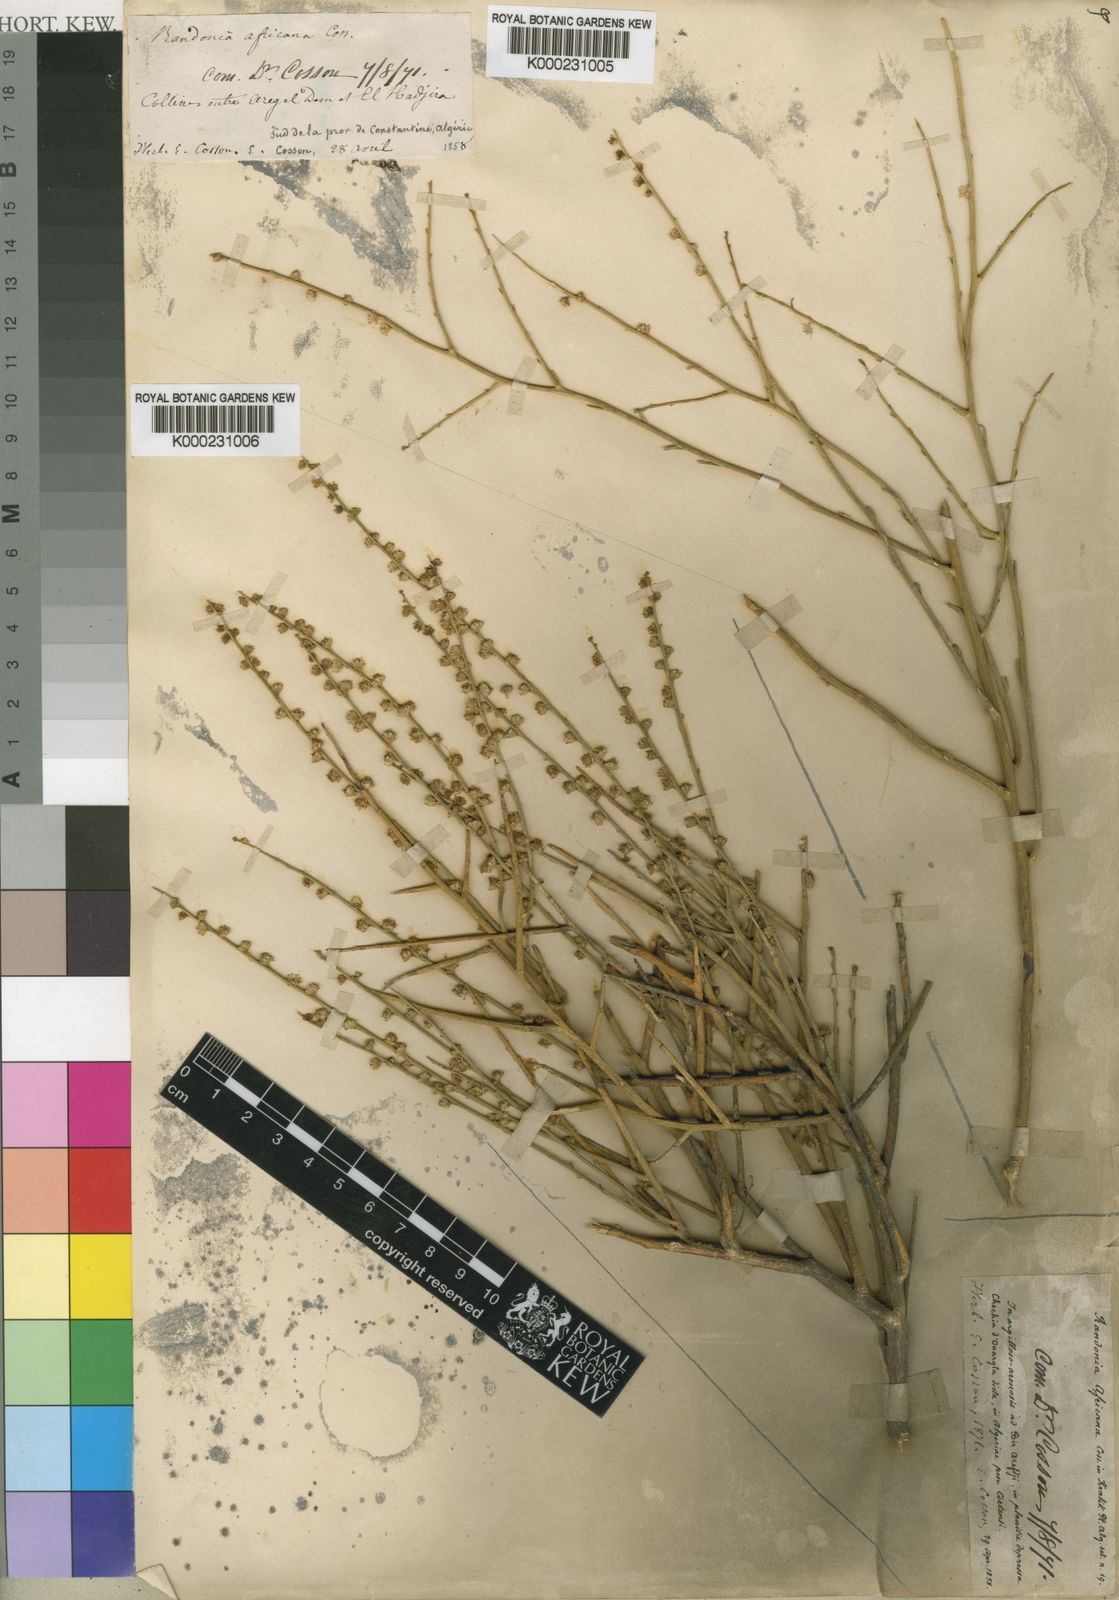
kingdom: Plantae
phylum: Tracheophyta
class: Magnoliopsida
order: Brassicales
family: Resedaceae
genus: Randonia
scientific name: Randonia
